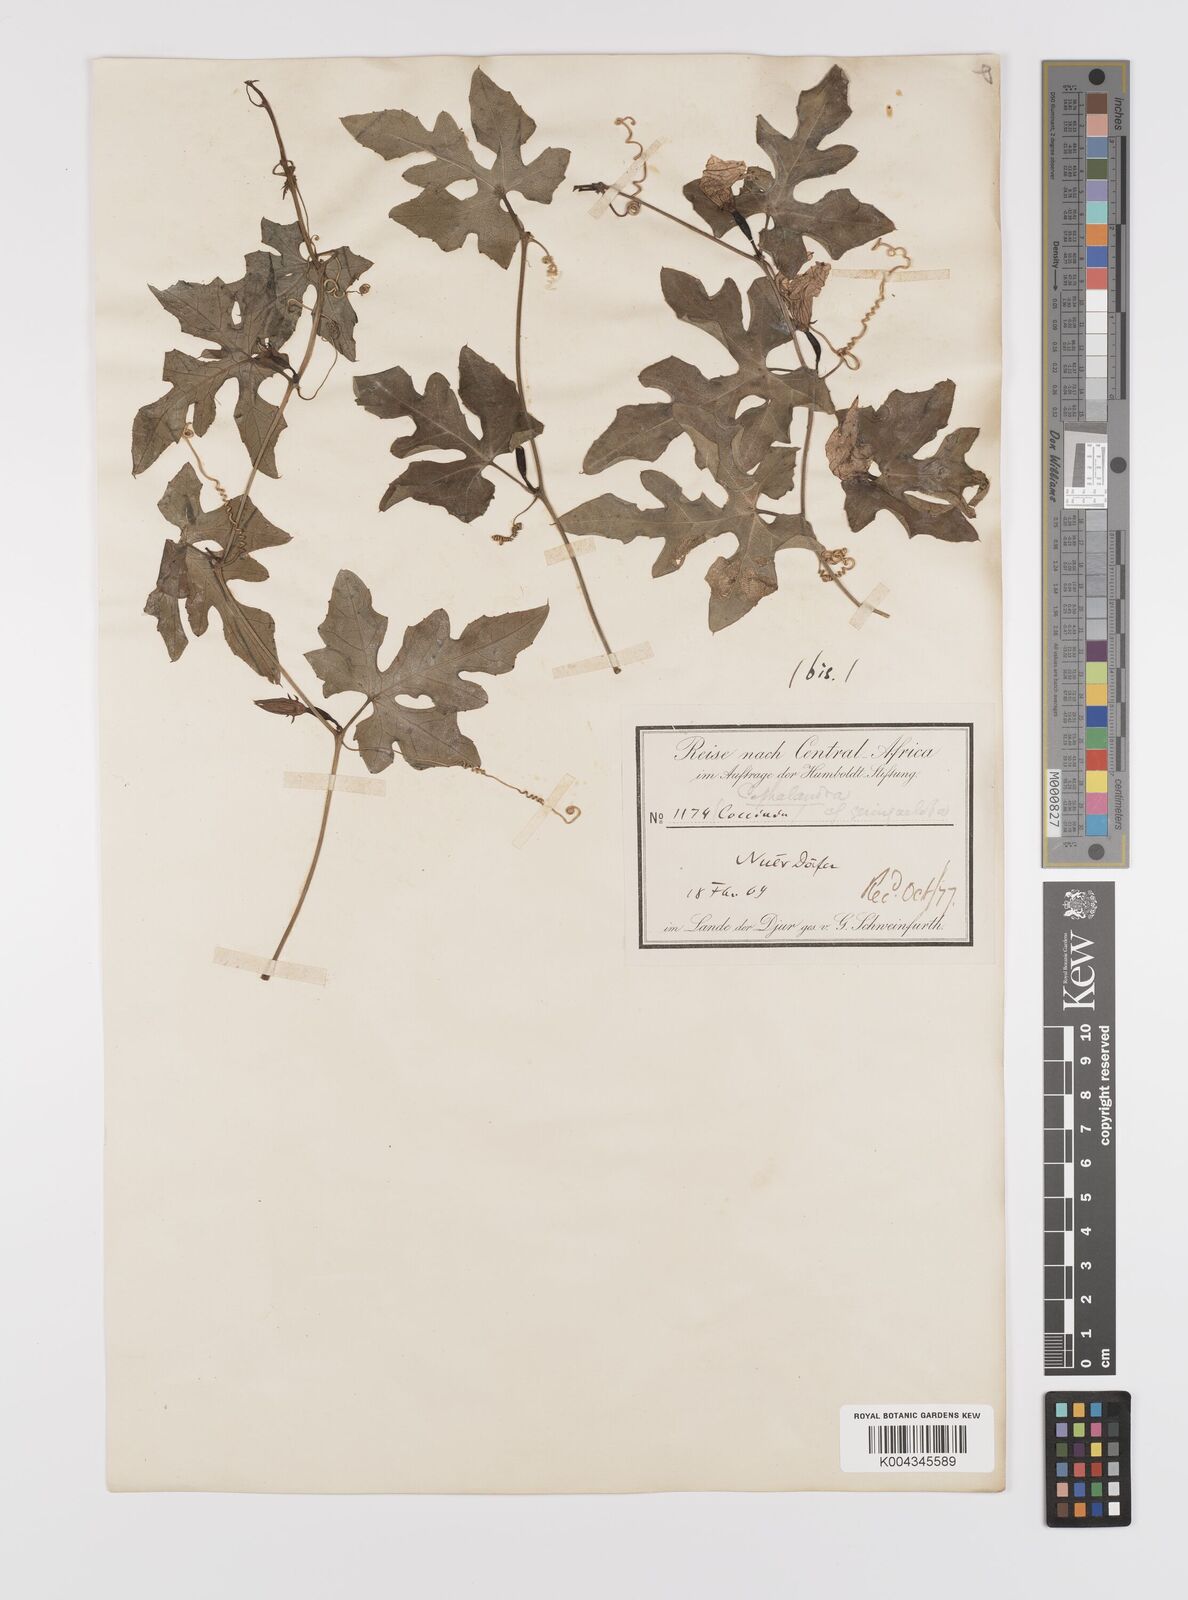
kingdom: Plantae
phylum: Tracheophyta
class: Magnoliopsida
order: Cucurbitales
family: Cucurbitaceae
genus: Coccinia
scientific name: Coccinia grandis
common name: Ivy gourd
